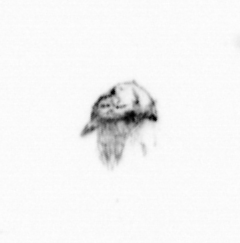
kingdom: Animalia
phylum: Arthropoda
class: Copepoda
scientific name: Copepoda
